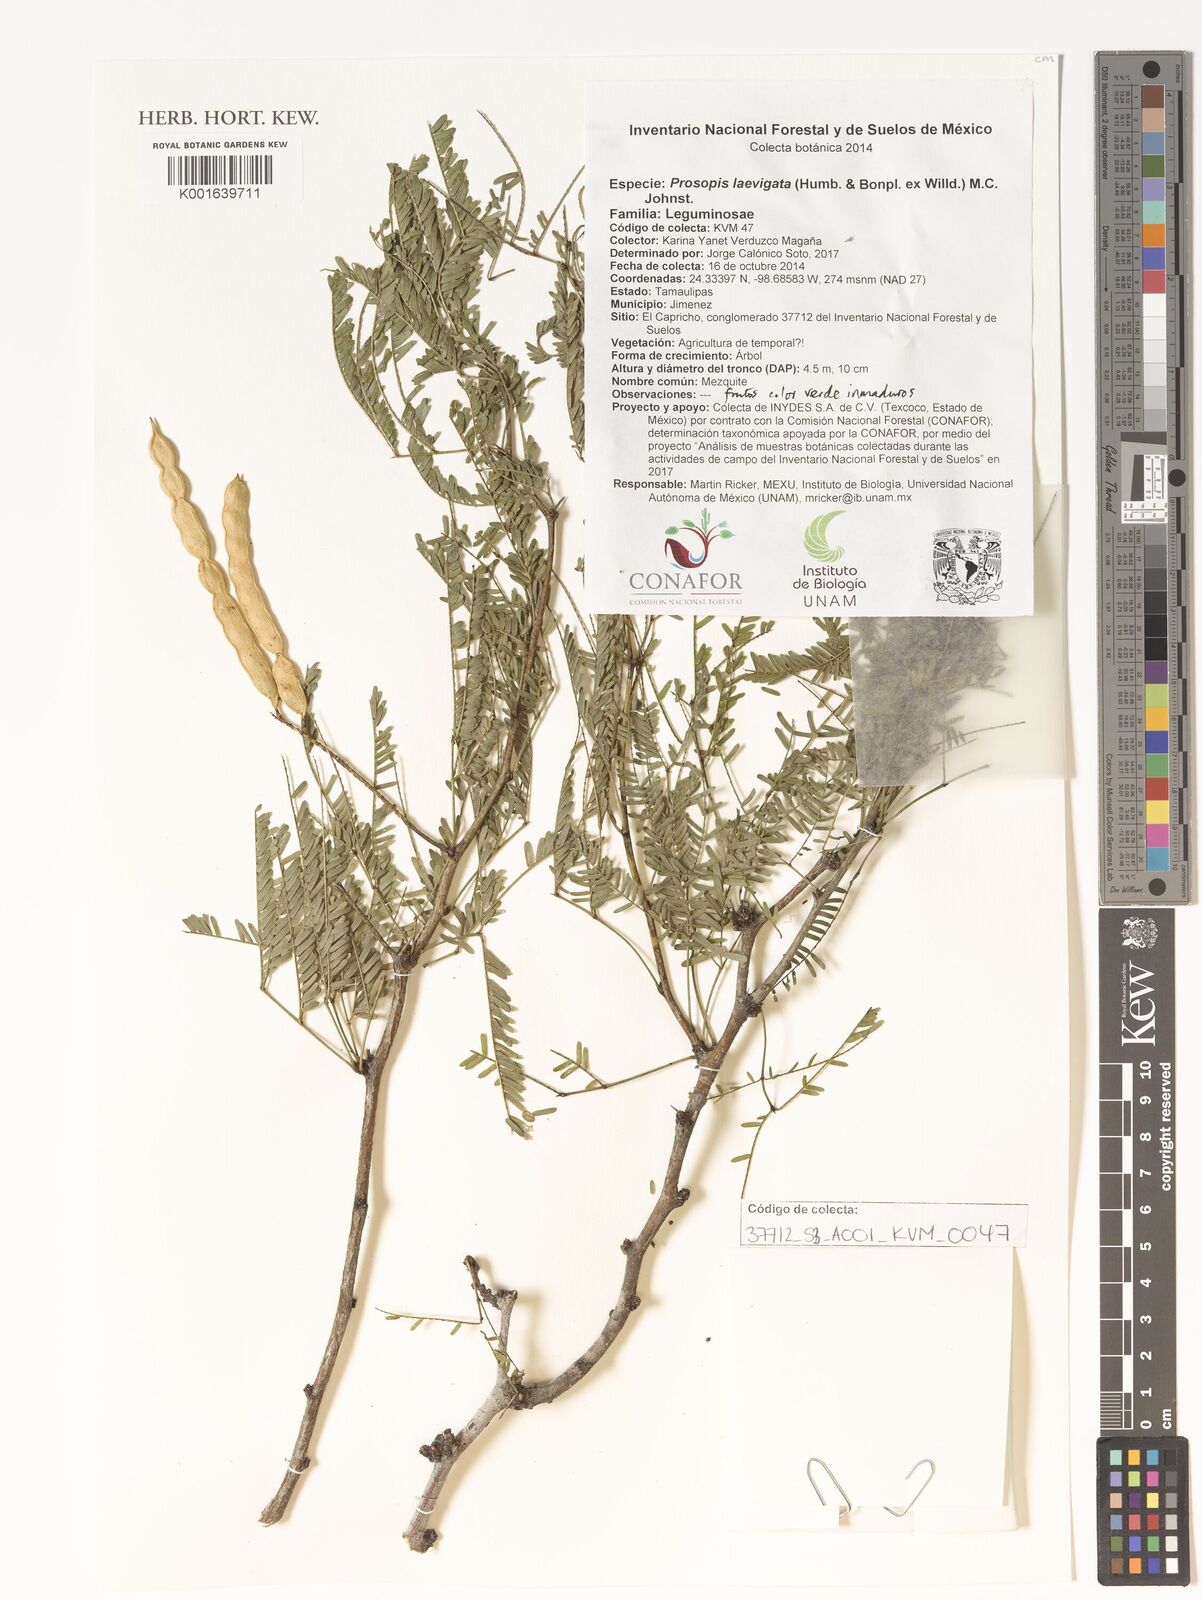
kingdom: Plantae
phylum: Tracheophyta
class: Magnoliopsida
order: Fabales
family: Fabaceae
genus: Prosopis
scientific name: Prosopis laevigata
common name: Smooth mesquite
